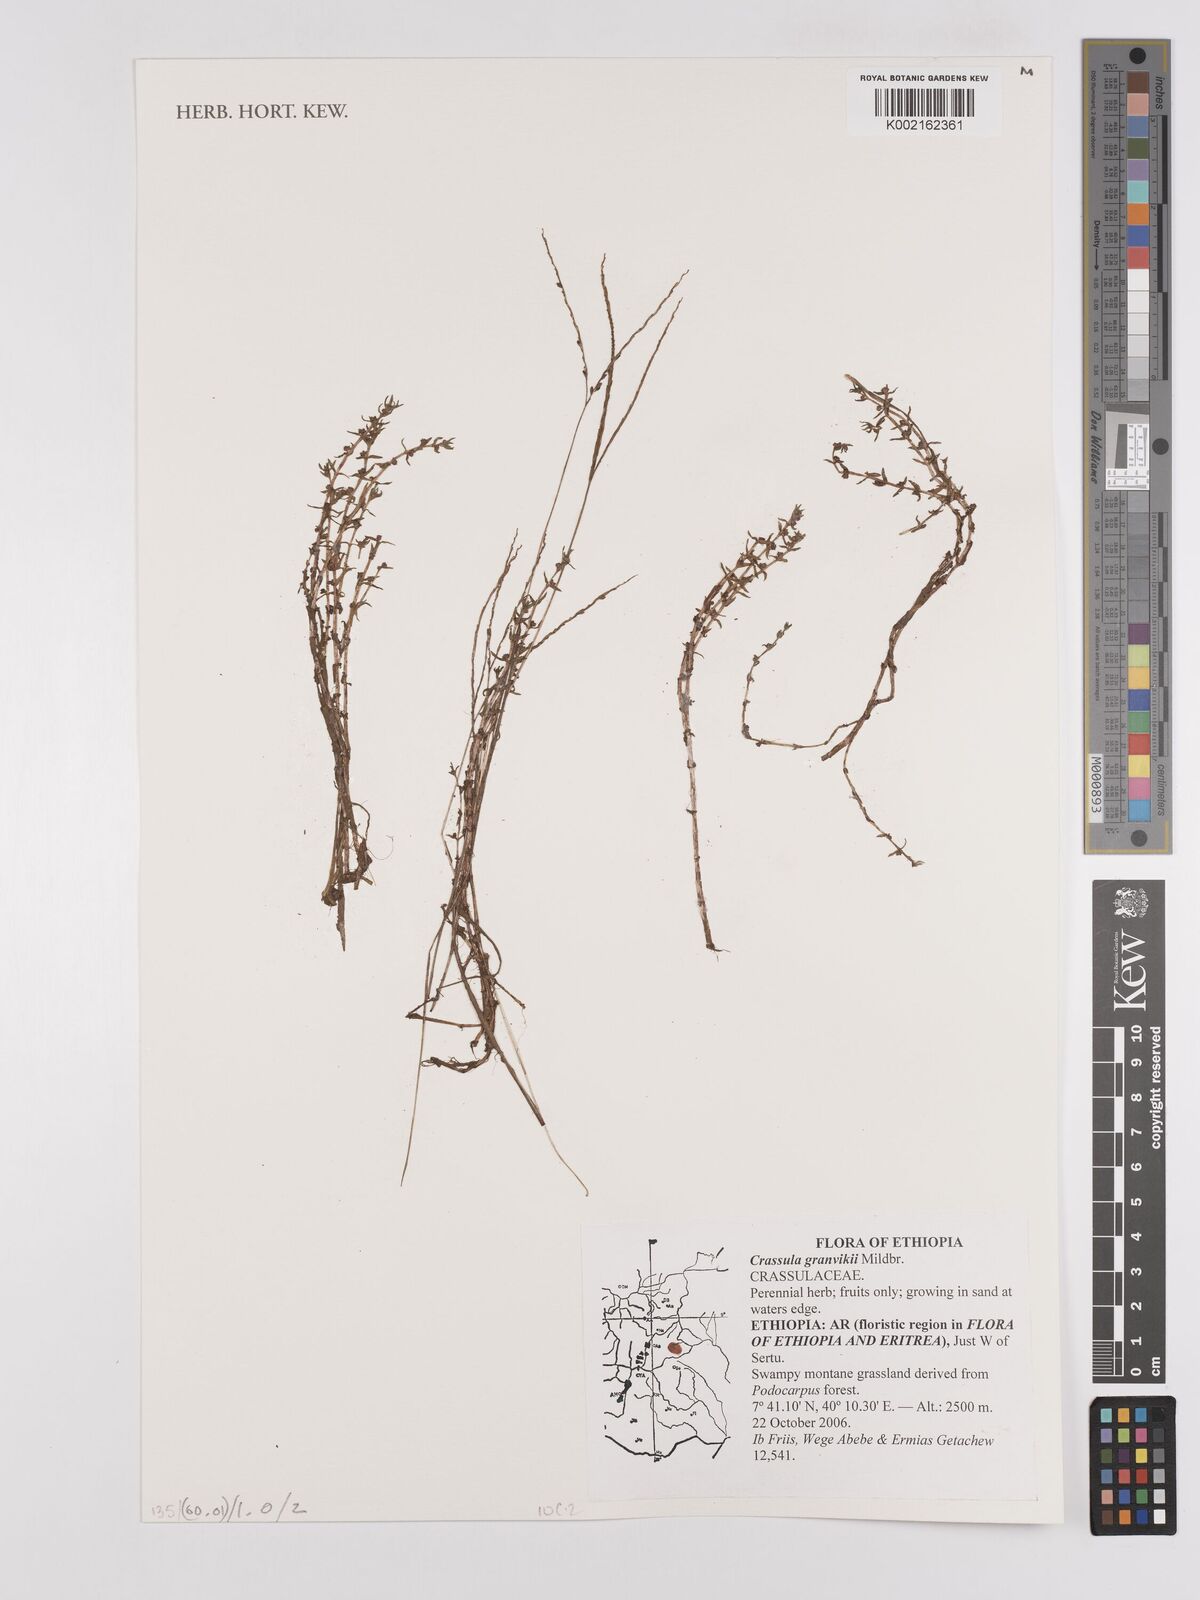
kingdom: Plantae
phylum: Tracheophyta
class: Magnoliopsida
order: Saxifragales
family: Crassulaceae
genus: Crassula
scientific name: Crassula granvikii
